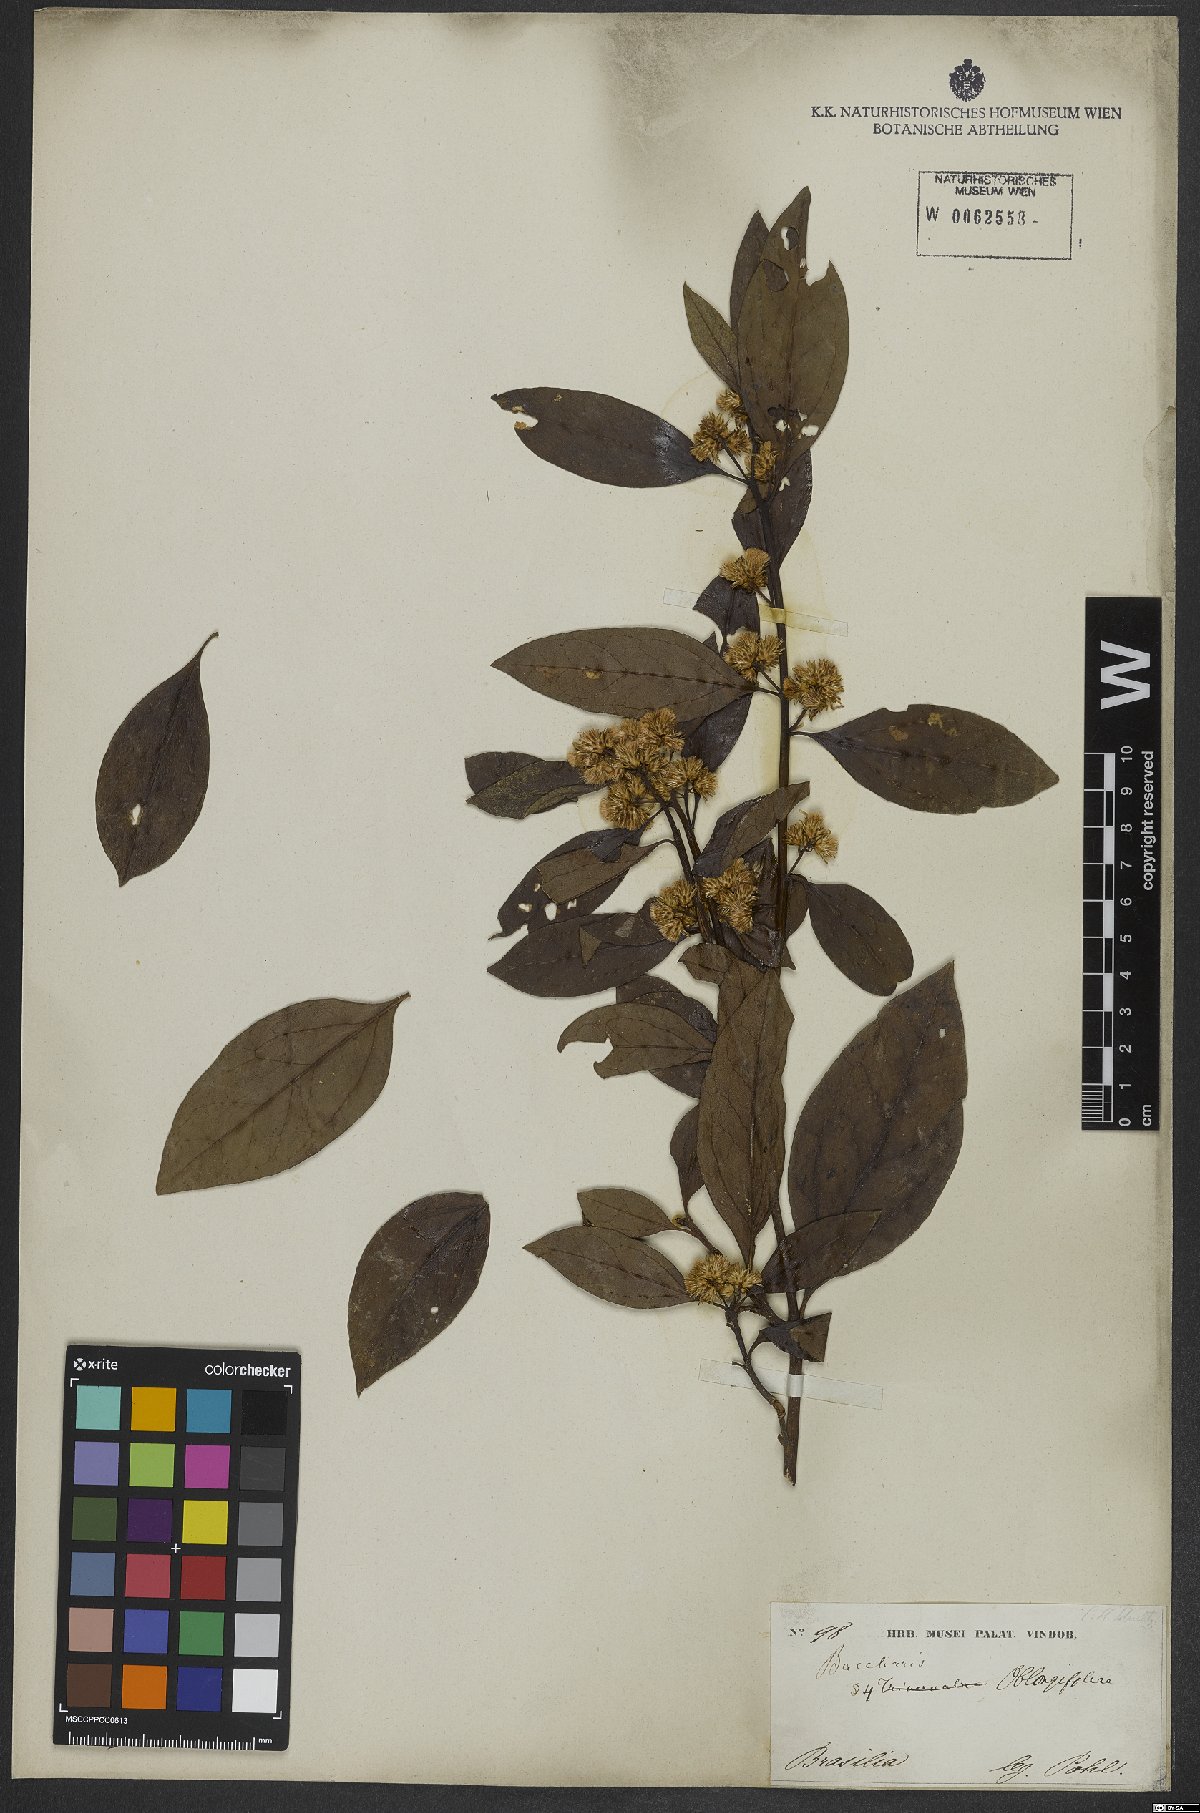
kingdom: Plantae
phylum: Tracheophyta
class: Magnoliopsida
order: Asterales
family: Asteraceae
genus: Baccharis
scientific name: Baccharis oblongifolia
